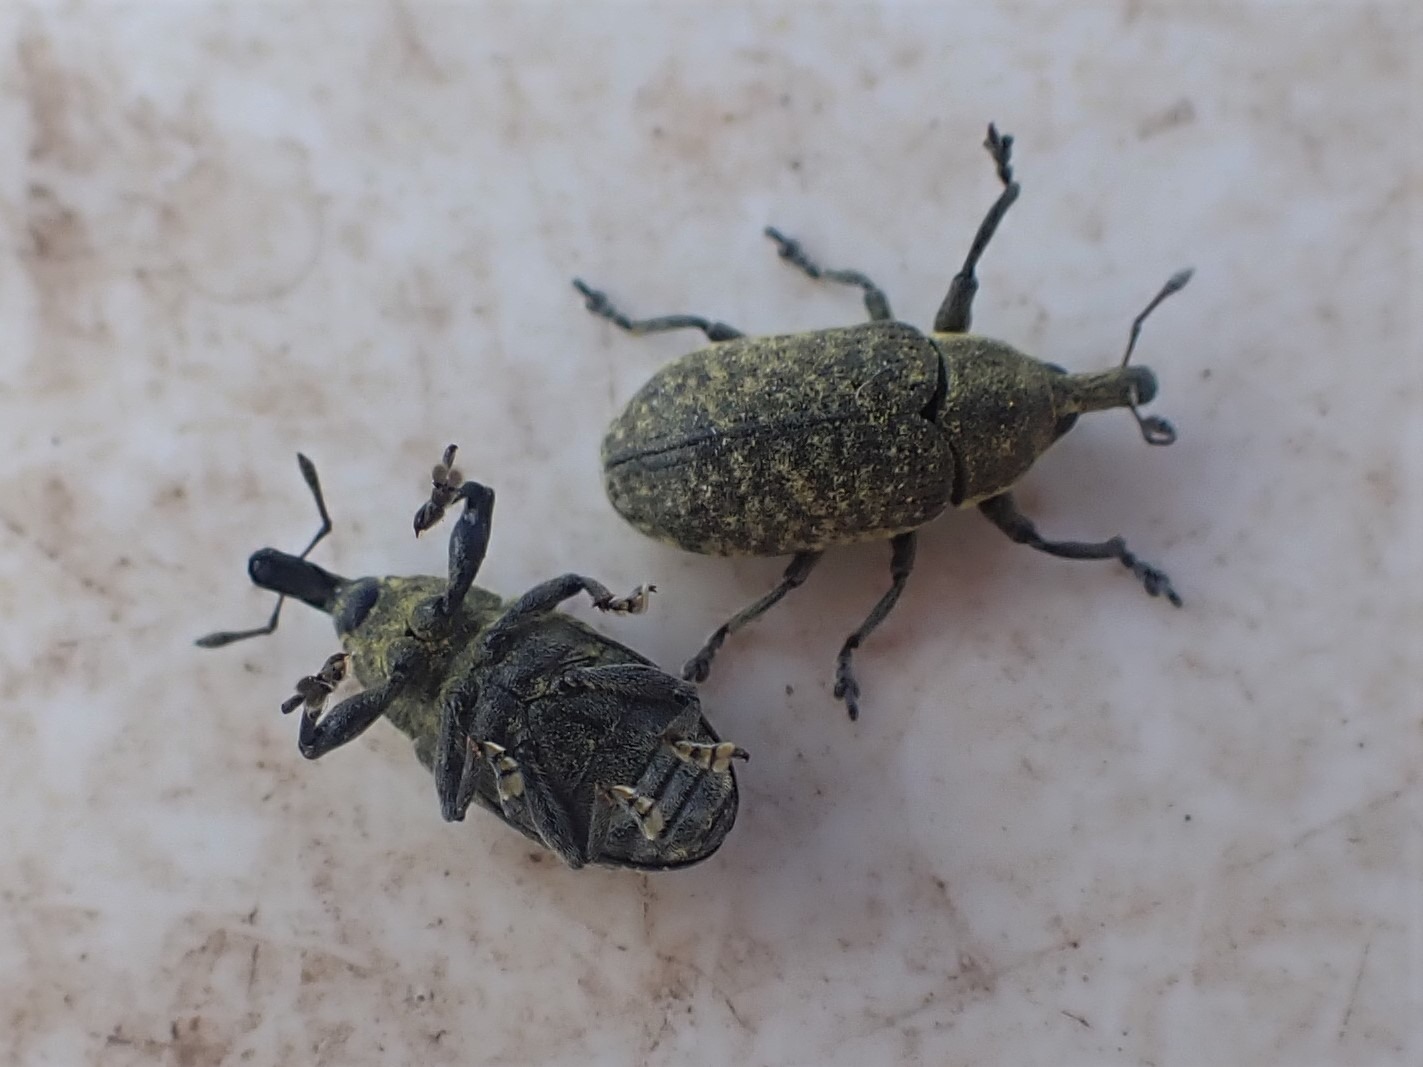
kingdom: Animalia
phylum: Arthropoda
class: Insecta
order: Coleoptera
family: Curculionidae
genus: Larinus
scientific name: Larinus carlinae
